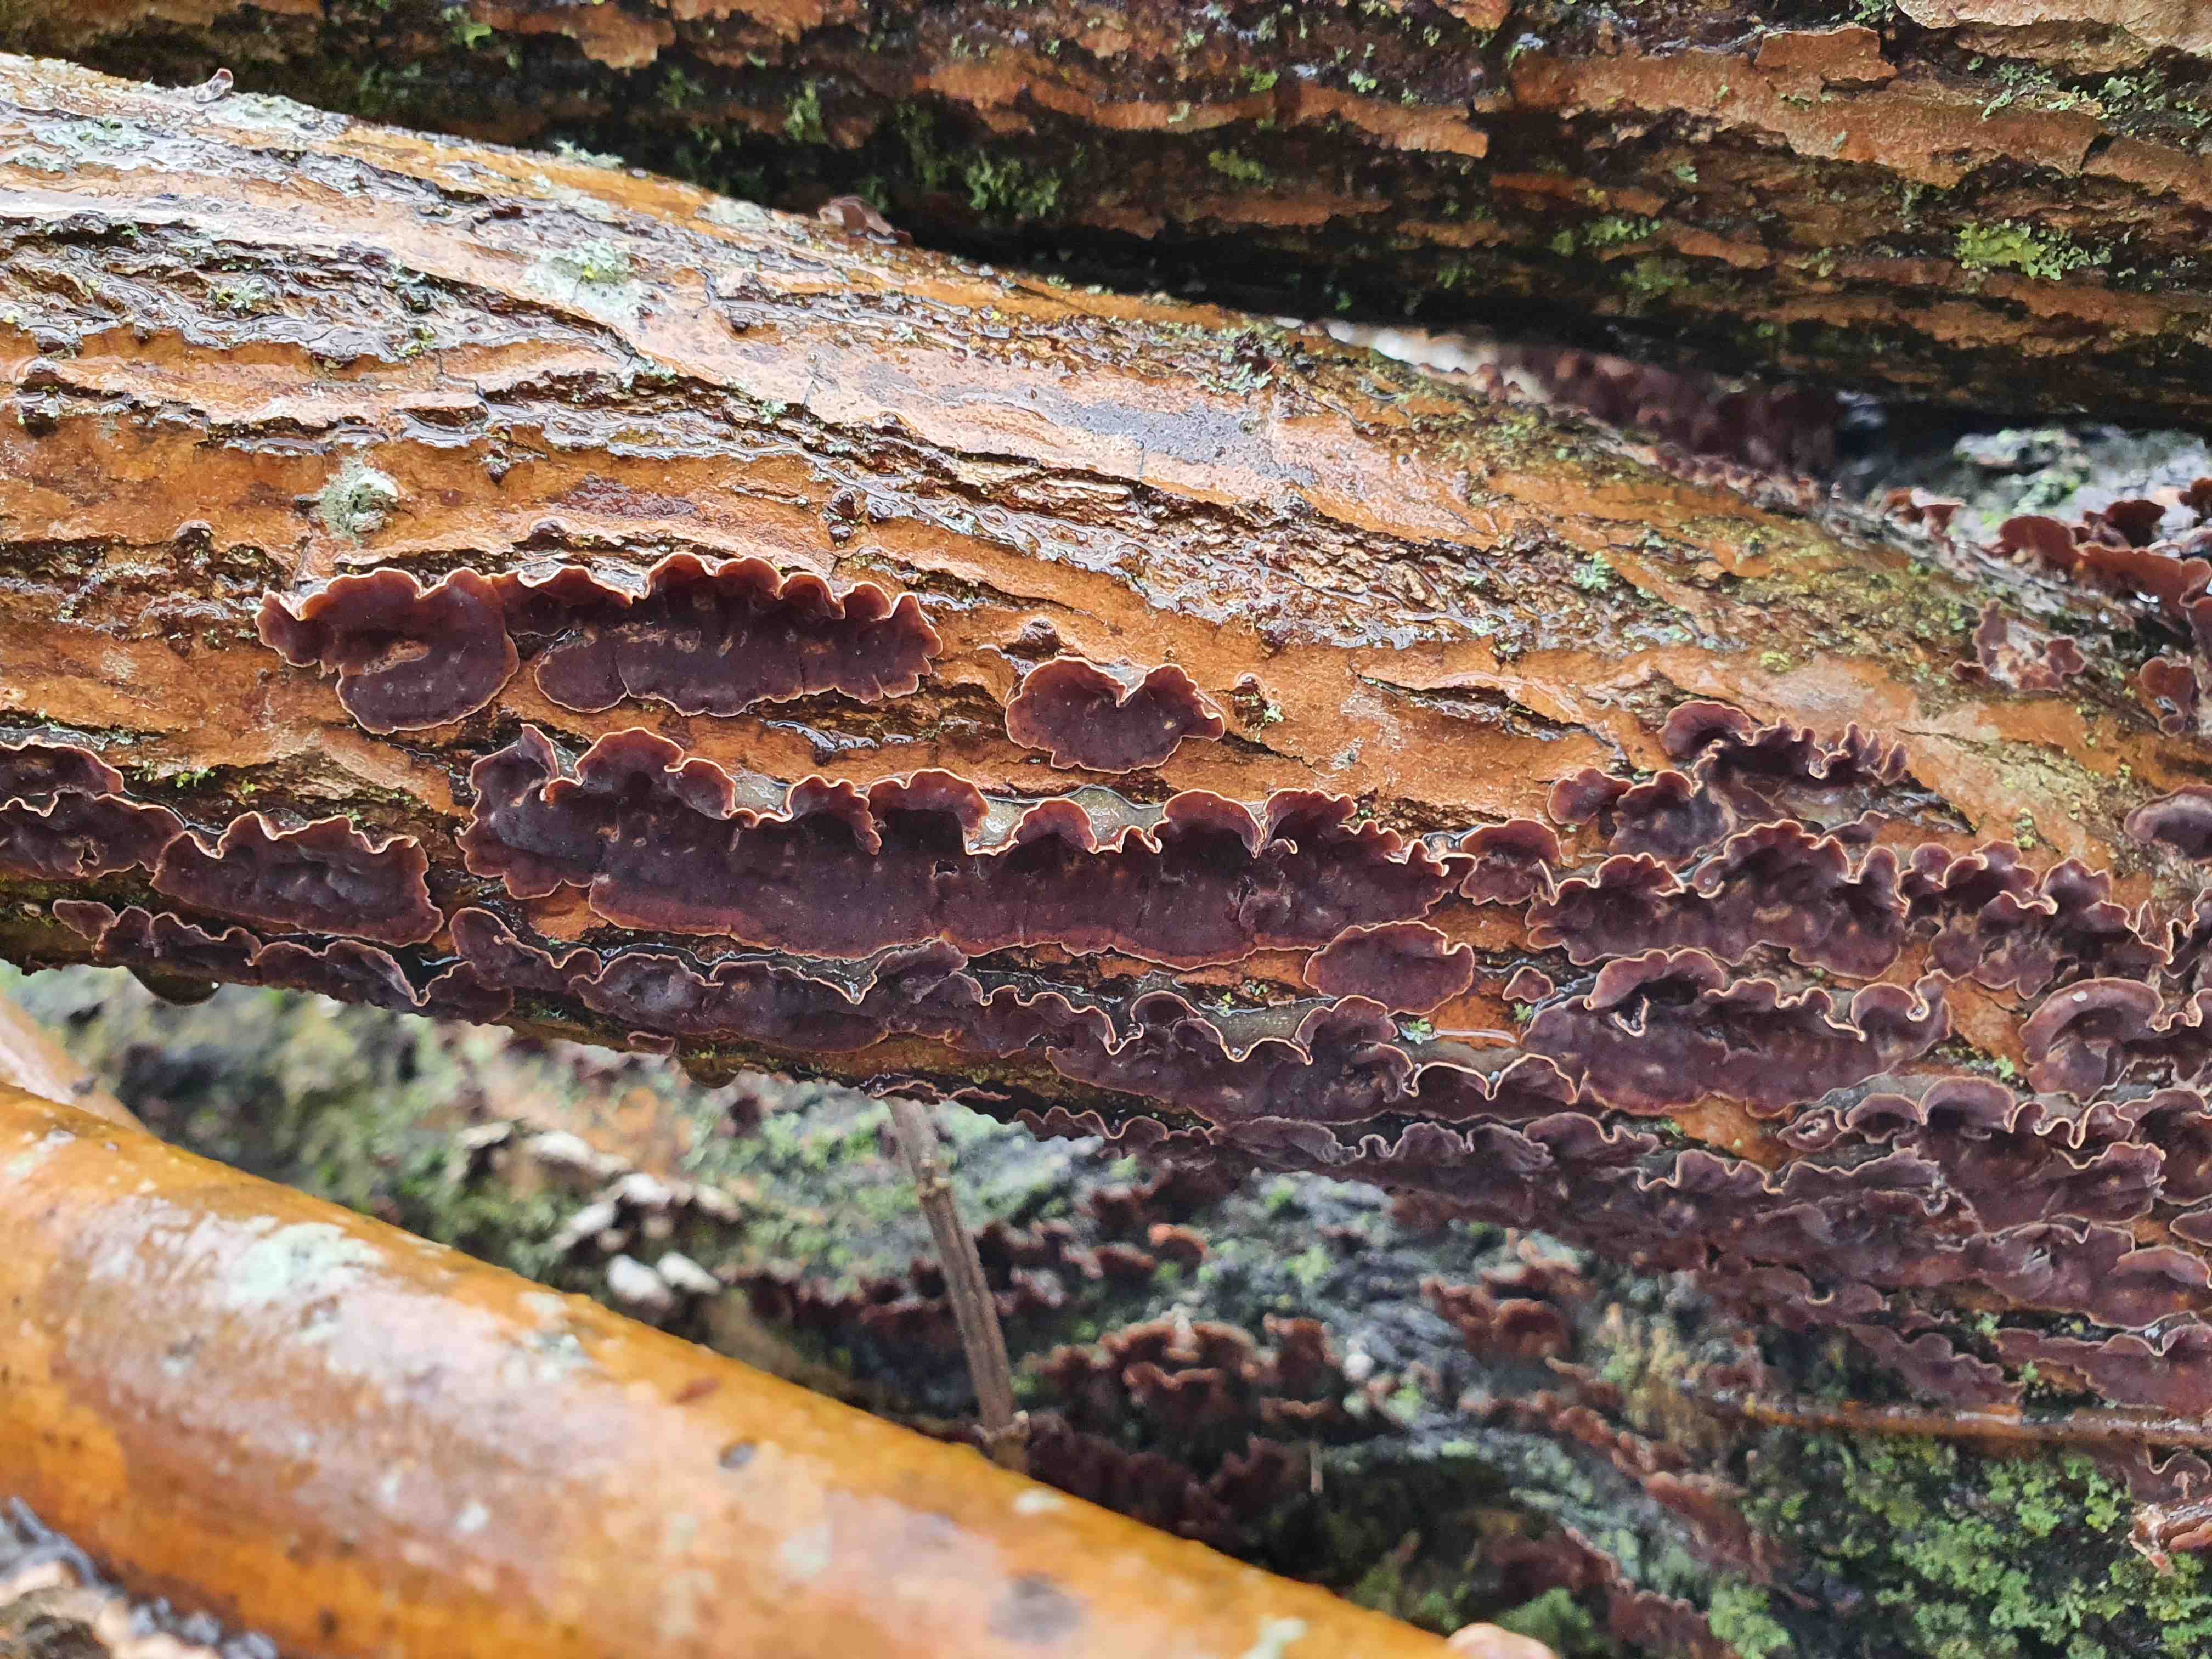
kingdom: Fungi
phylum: Basidiomycota
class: Agaricomycetes
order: Hymenochaetales
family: Hymenochaetaceae
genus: Hydnoporia
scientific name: Hydnoporia tabacina
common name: tobaksbrun ruslædersvamp
